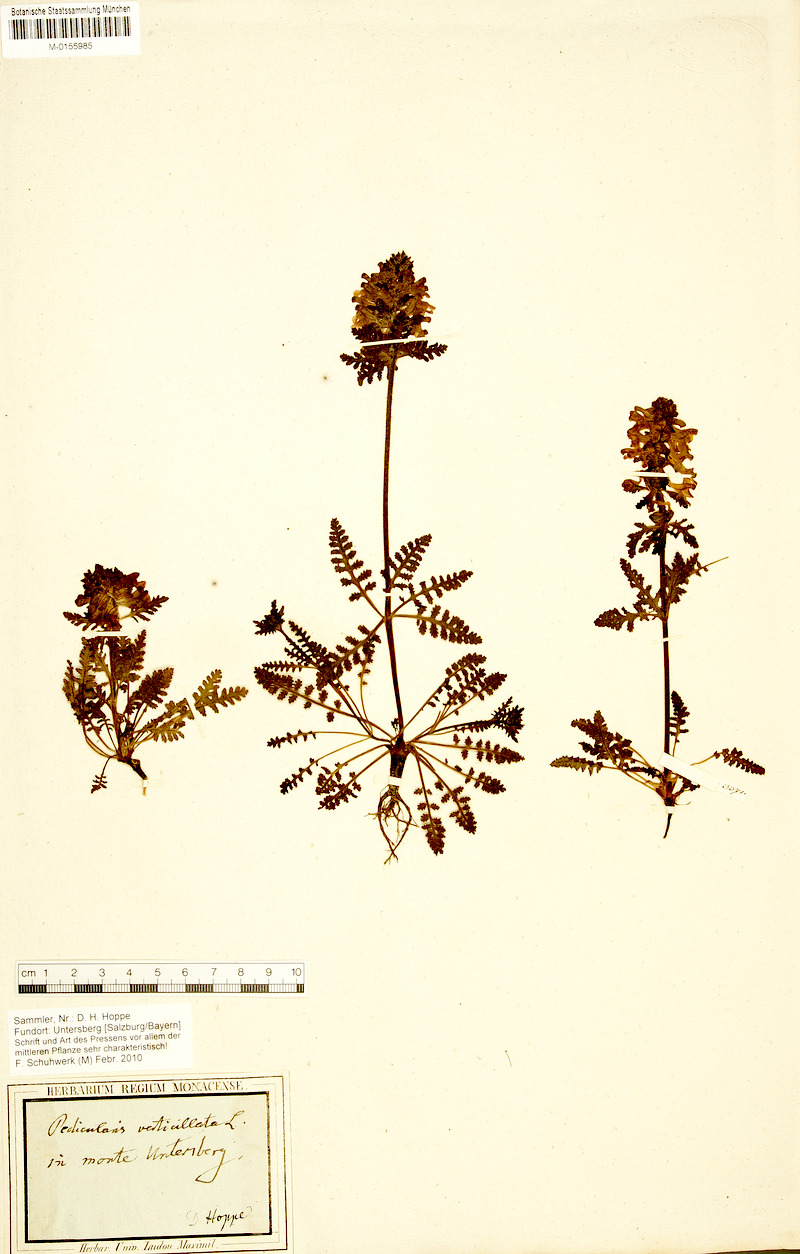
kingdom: Plantae
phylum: Tracheophyta
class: Magnoliopsida
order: Lamiales
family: Orobanchaceae
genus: Pedicularis
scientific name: Pedicularis verticillata
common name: Whorled lousewort
